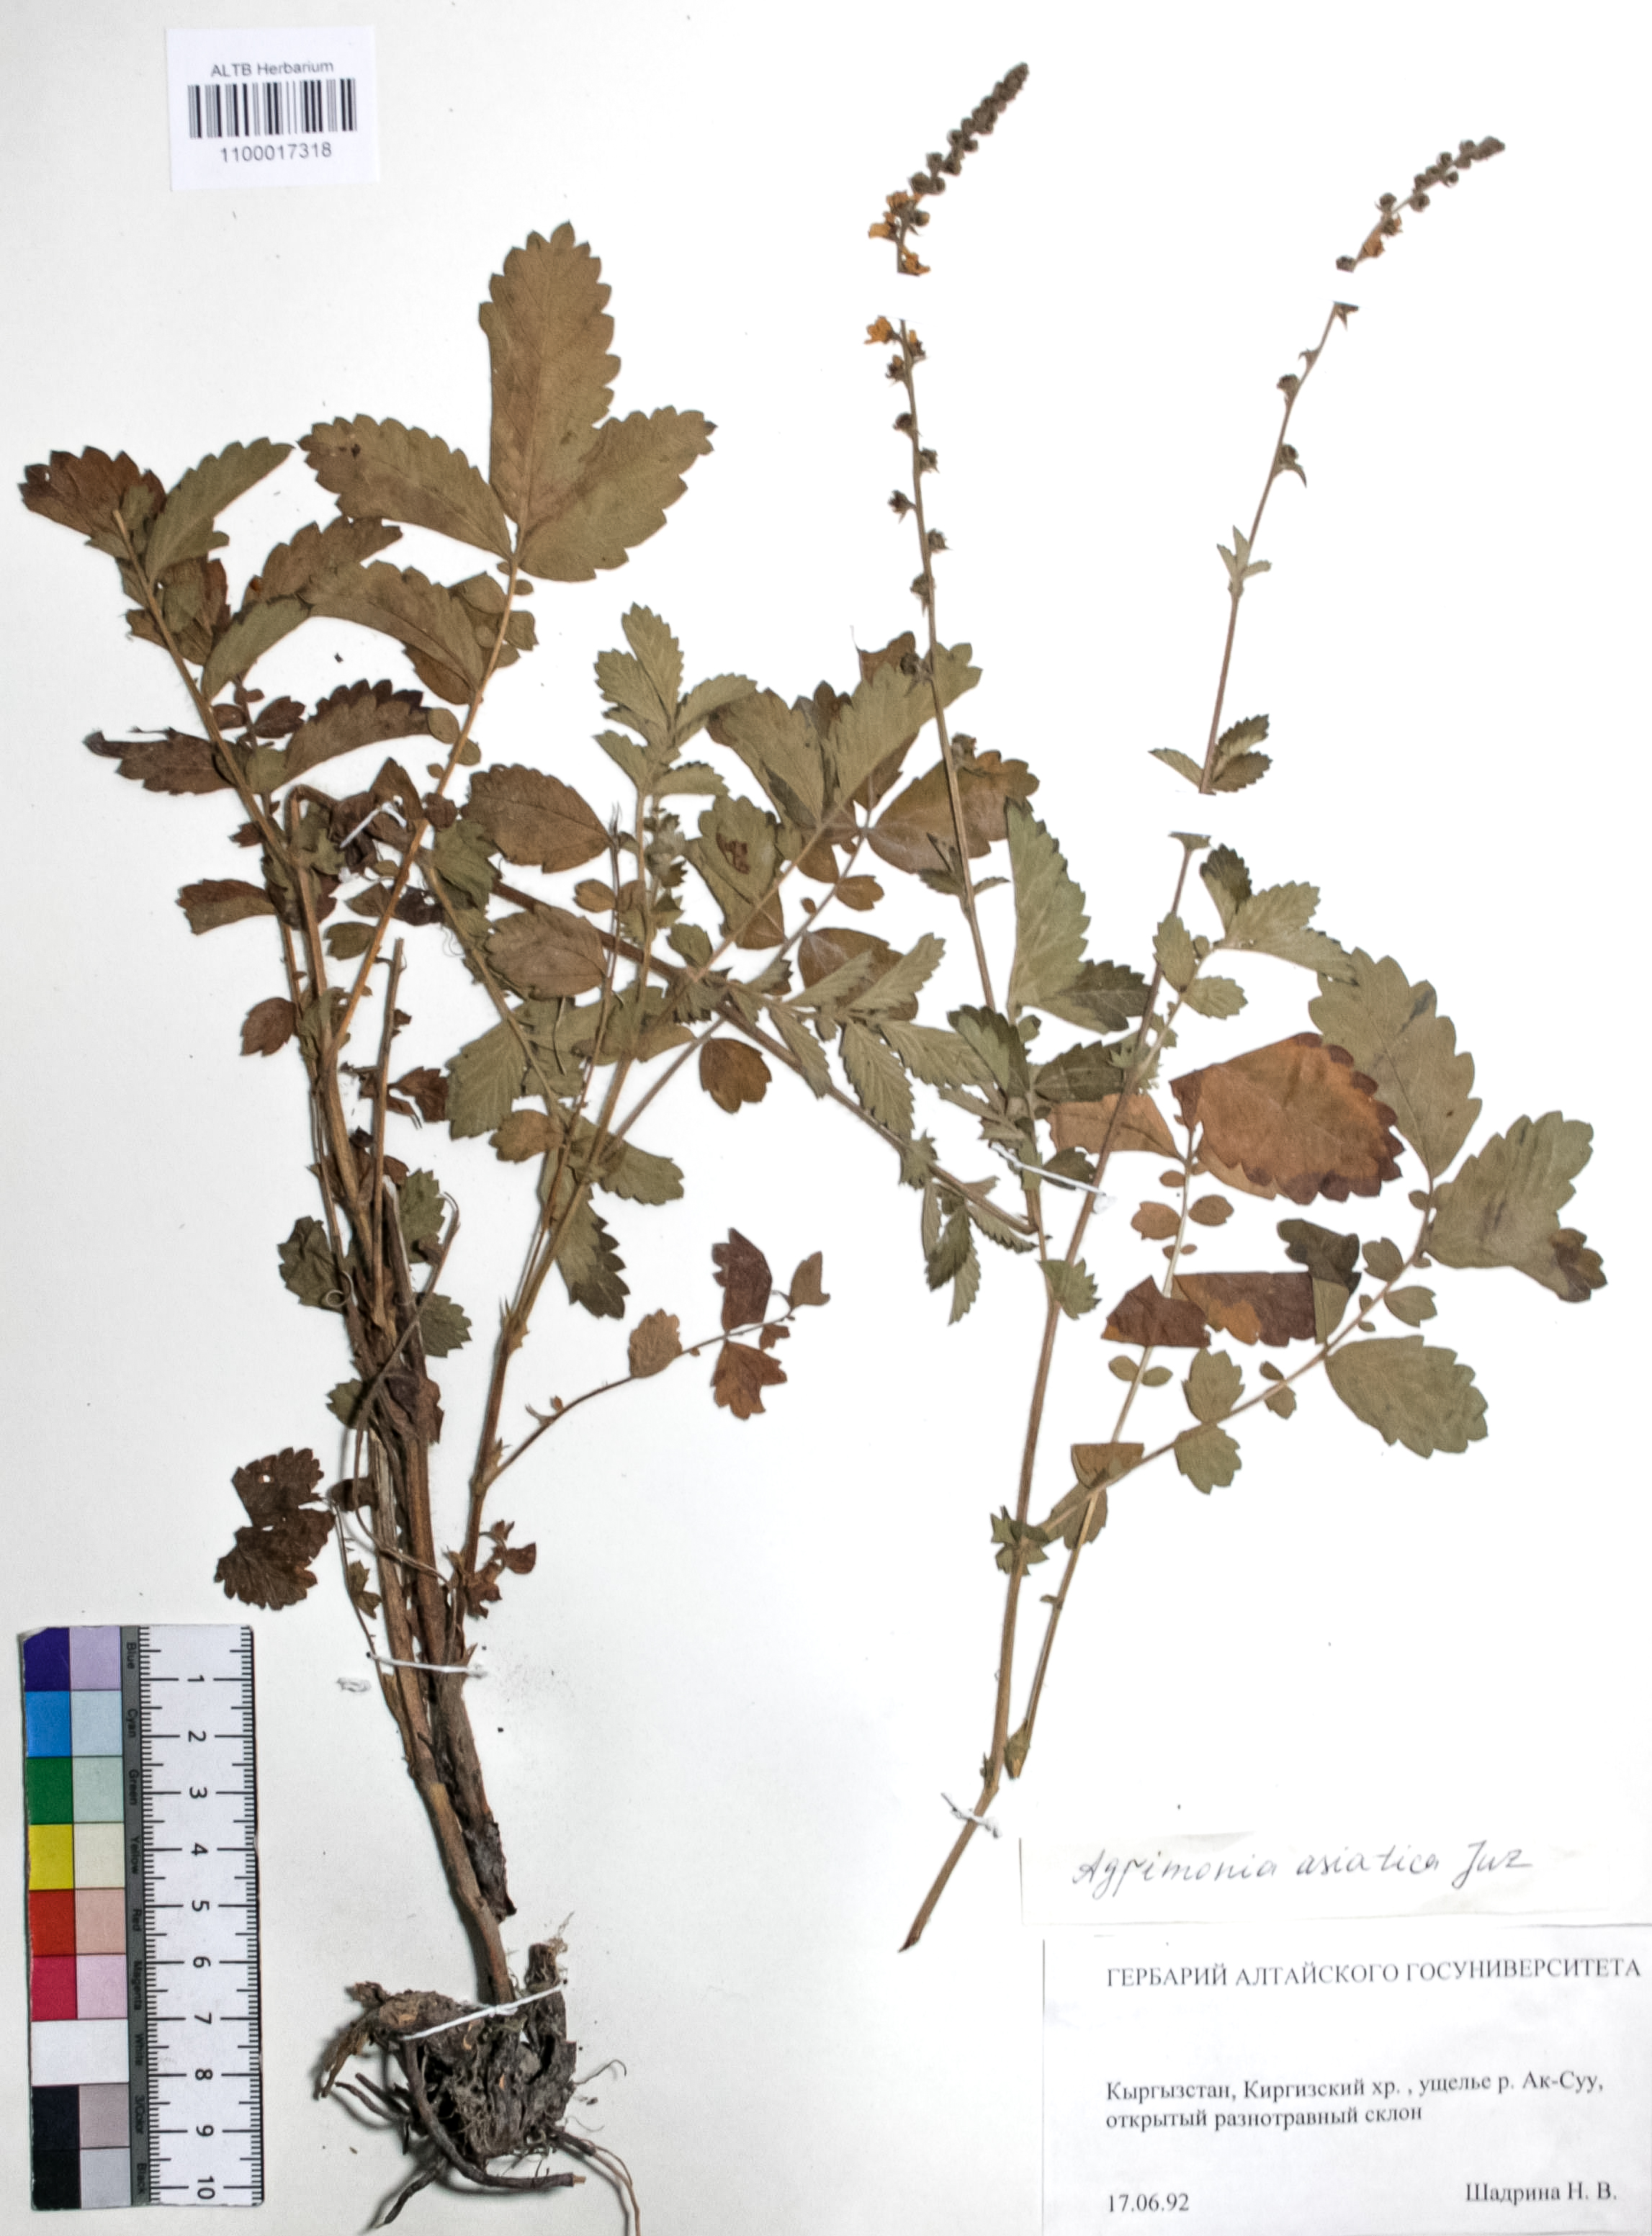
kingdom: Plantae
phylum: Tracheophyta
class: Magnoliopsida
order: Rosales
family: Rosaceae
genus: Agrimonia
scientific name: Agrimonia eupatoria
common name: Agrimony
